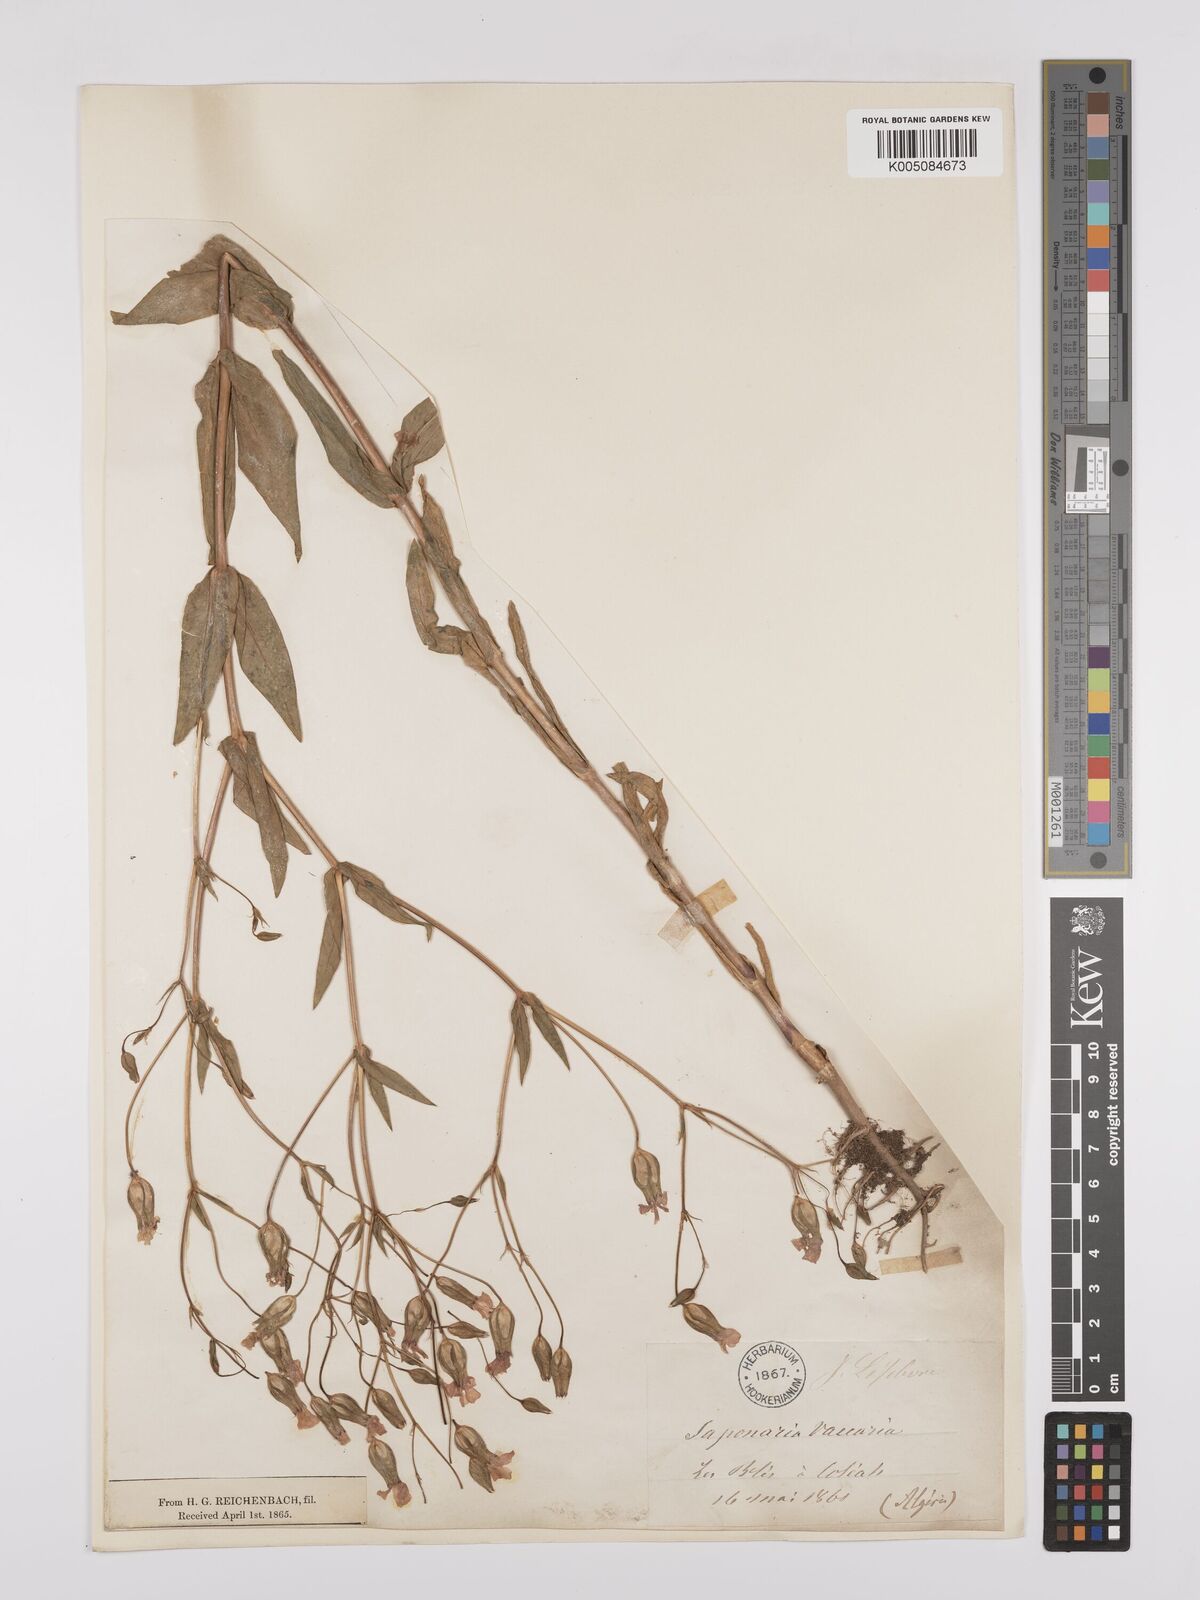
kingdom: Plantae
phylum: Tracheophyta
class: Magnoliopsida
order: Caryophyllales
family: Caryophyllaceae
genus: Gypsophila
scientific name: Gypsophila vaccaria
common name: Cow soapwort
